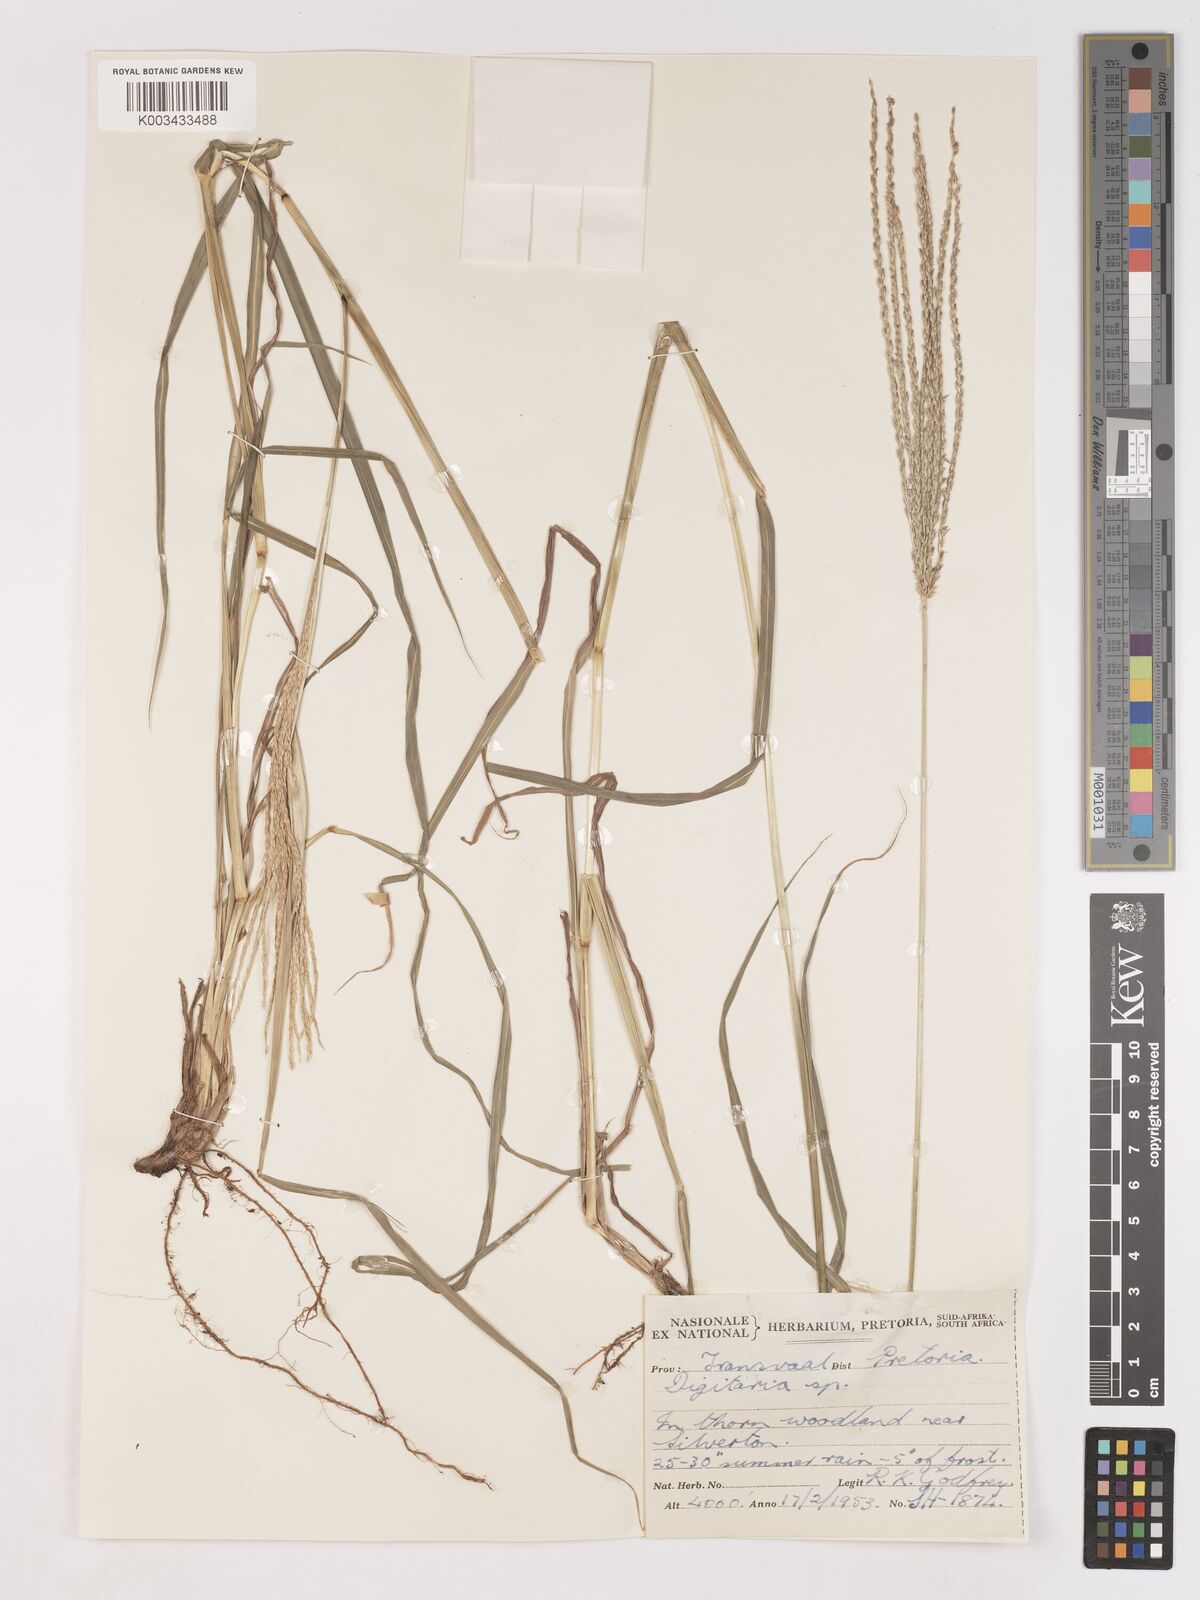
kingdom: Plantae
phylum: Tracheophyta
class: Liliopsida
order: Poales
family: Poaceae
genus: Digitaria
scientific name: Digitaria eriantha
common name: Digitgrass
